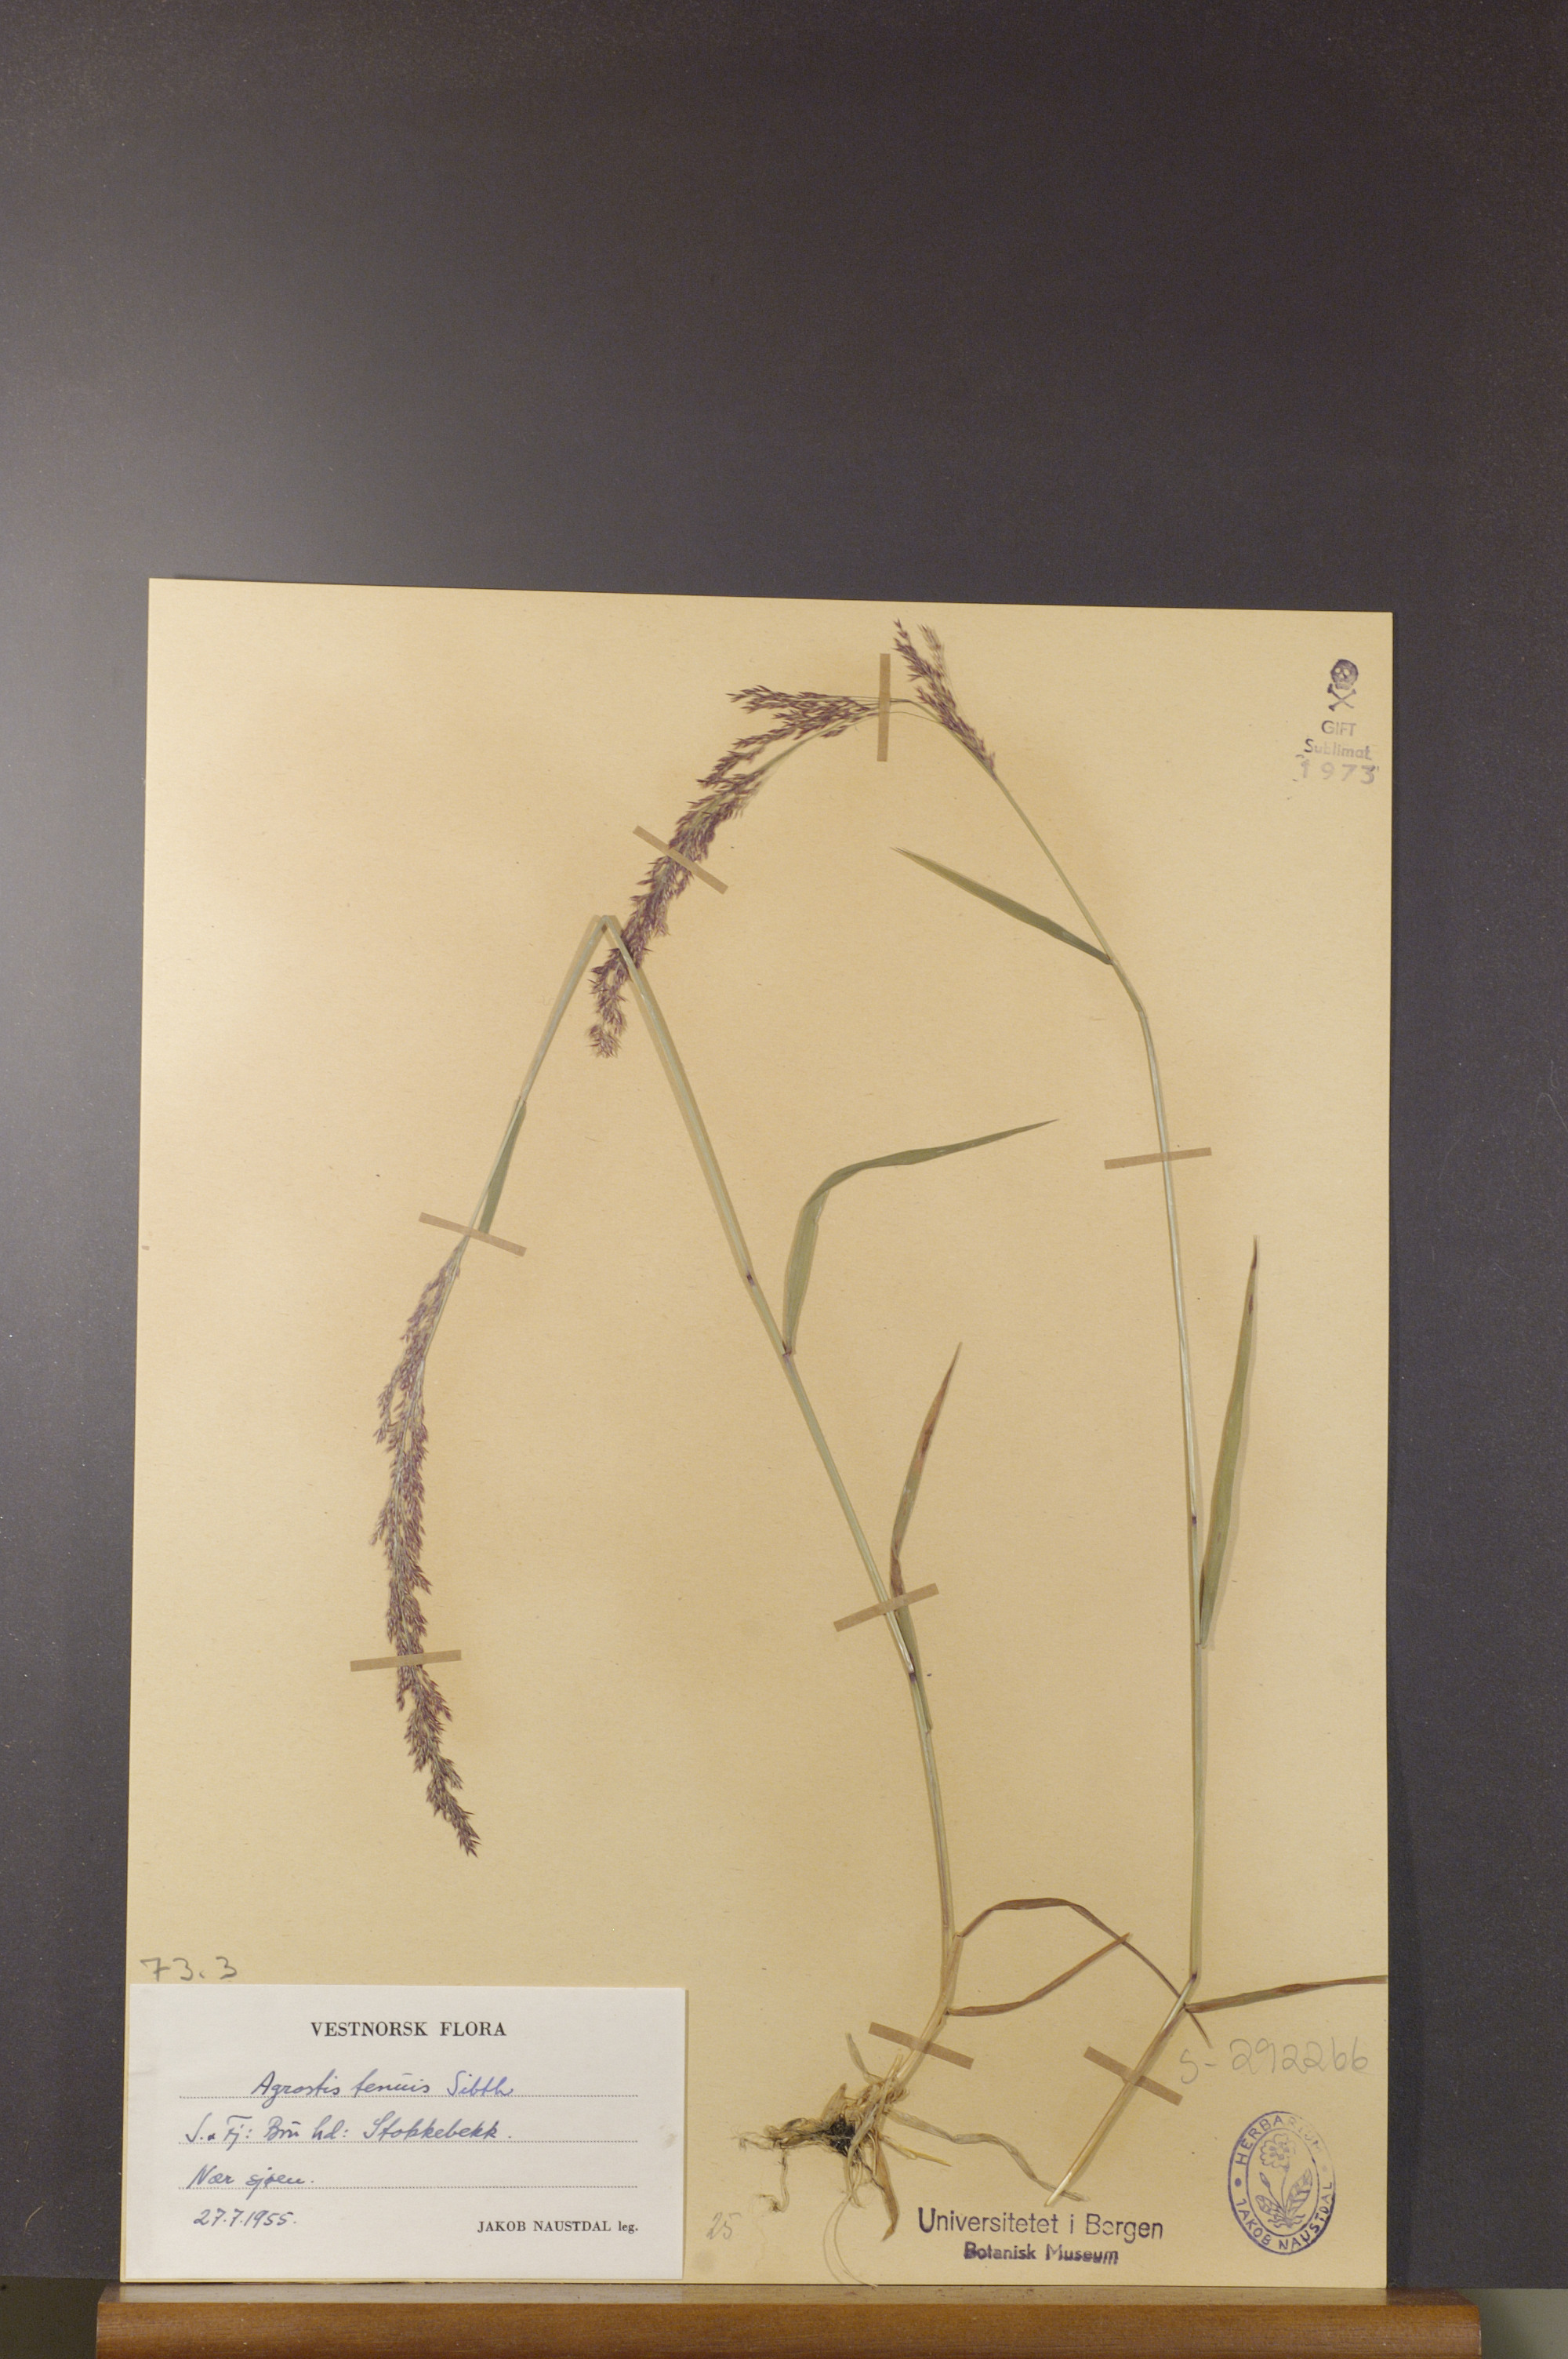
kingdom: Plantae
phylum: Tracheophyta
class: Liliopsida
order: Poales
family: Poaceae
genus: Agrostis
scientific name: Agrostis capillaris
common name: Colonial bentgrass
